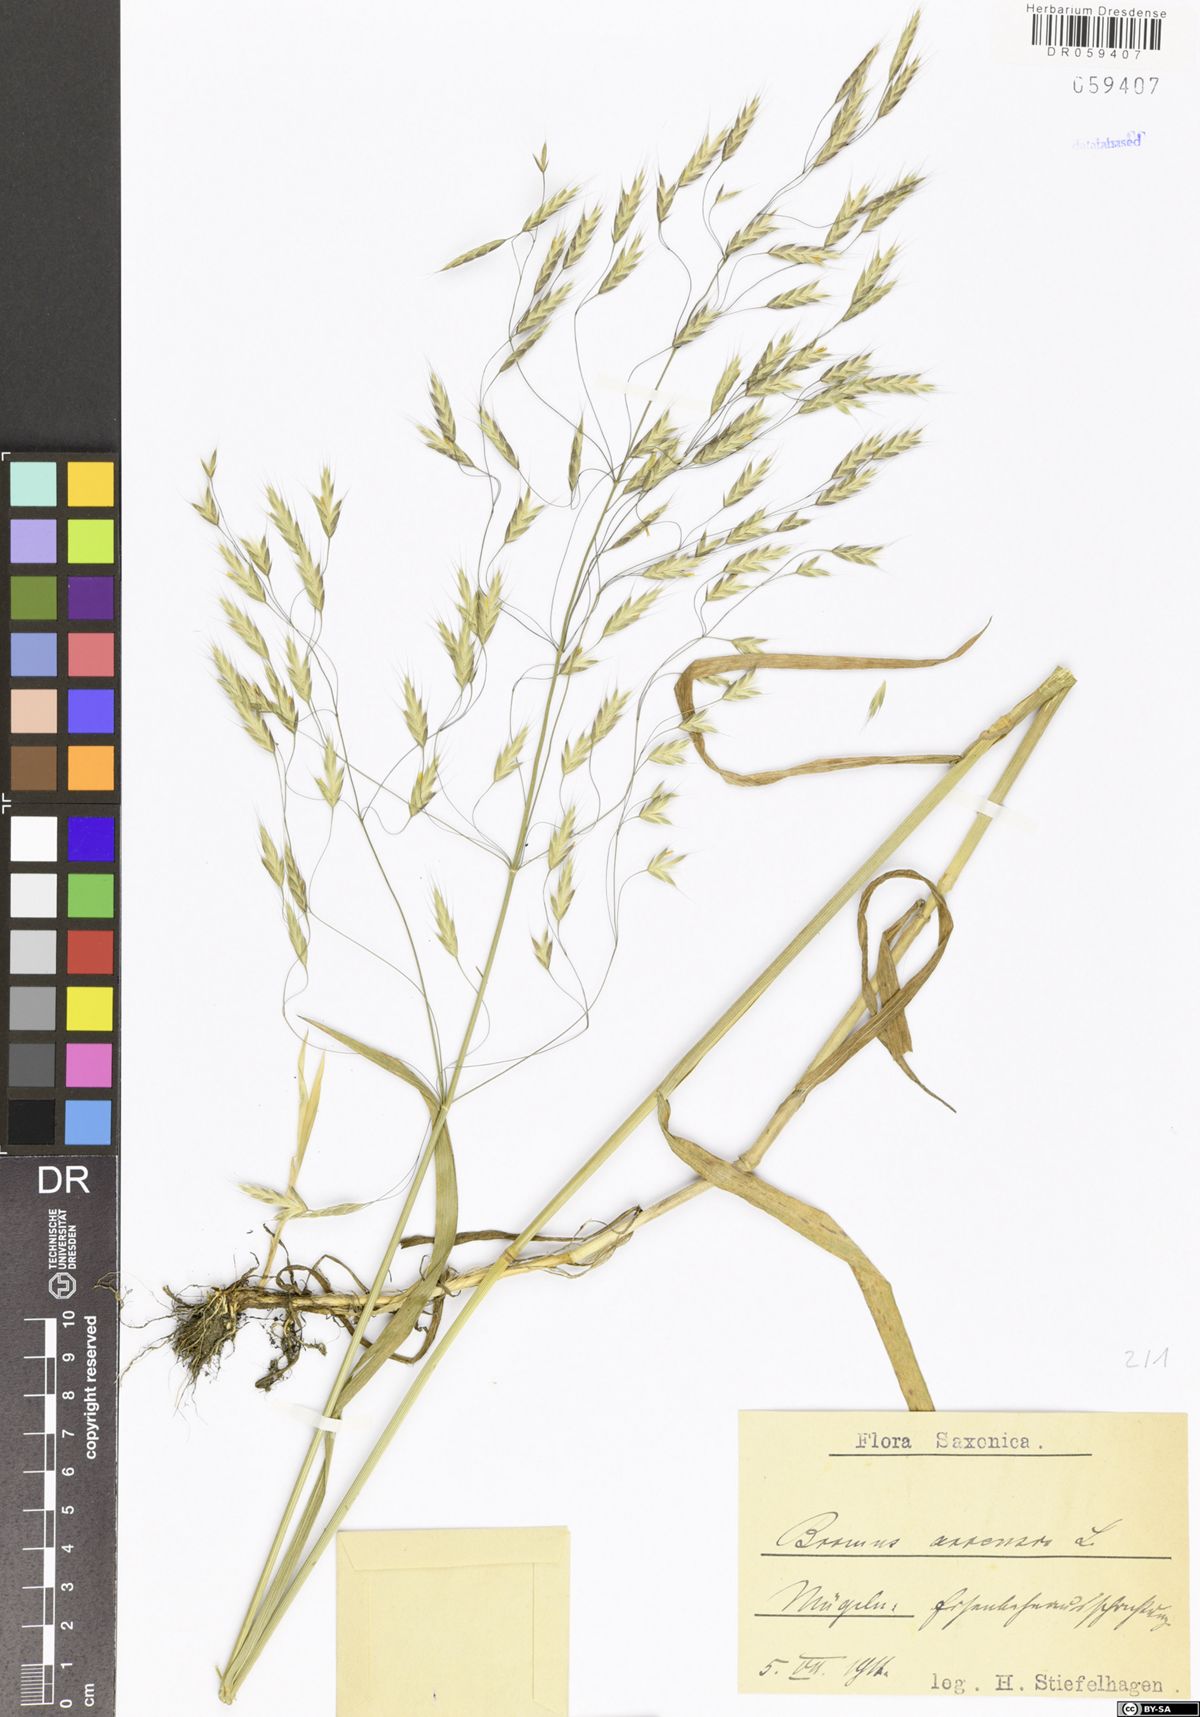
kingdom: Plantae
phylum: Tracheophyta
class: Liliopsida
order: Poales
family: Poaceae
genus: Bromus
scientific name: Bromus arvensis
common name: Field brome
